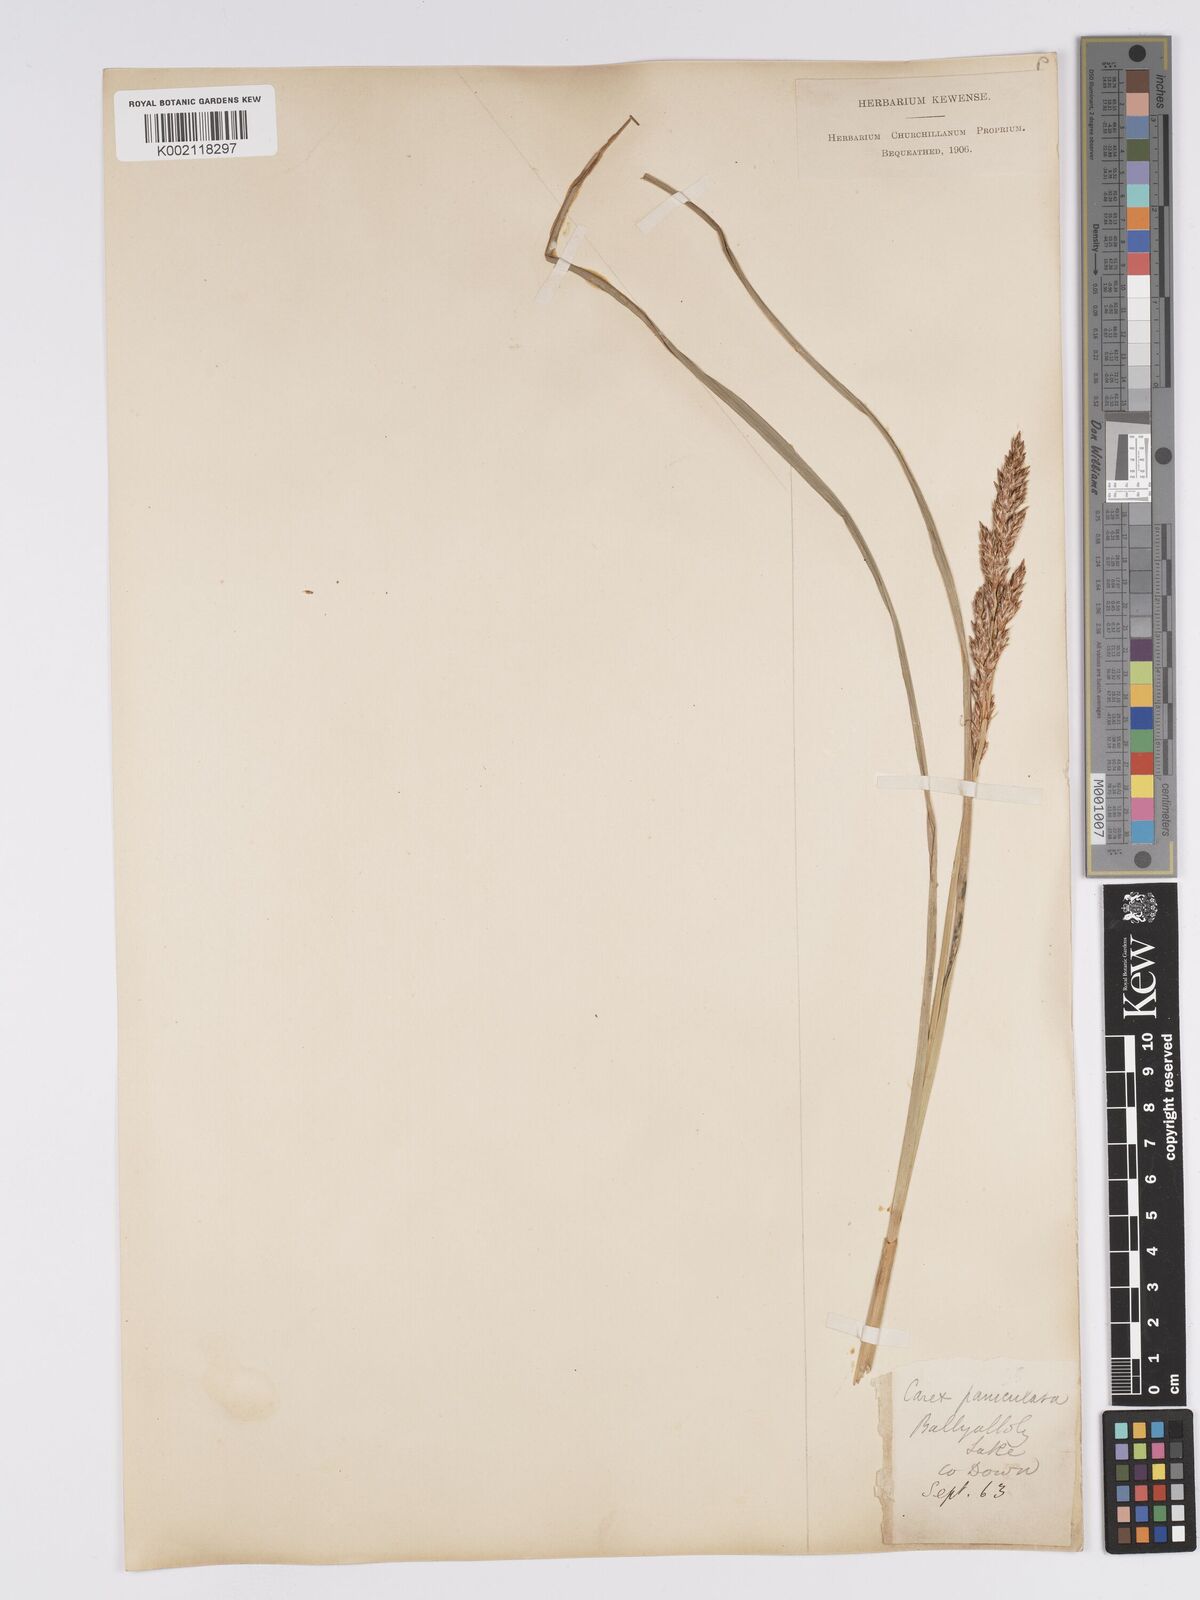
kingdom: Plantae
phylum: Tracheophyta
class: Liliopsida
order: Poales
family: Cyperaceae
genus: Carex
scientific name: Carex paniculata
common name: Greater tussock-sedge
